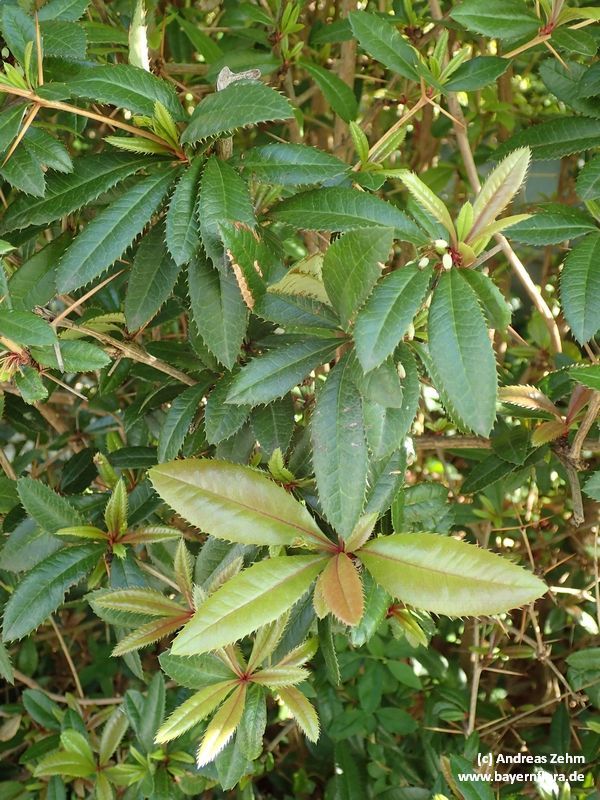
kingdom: Plantae
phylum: Tracheophyta
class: Magnoliopsida
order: Ranunculales
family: Berberidaceae
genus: Berberis
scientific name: Berberis julianae
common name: Wintergreen barberry
